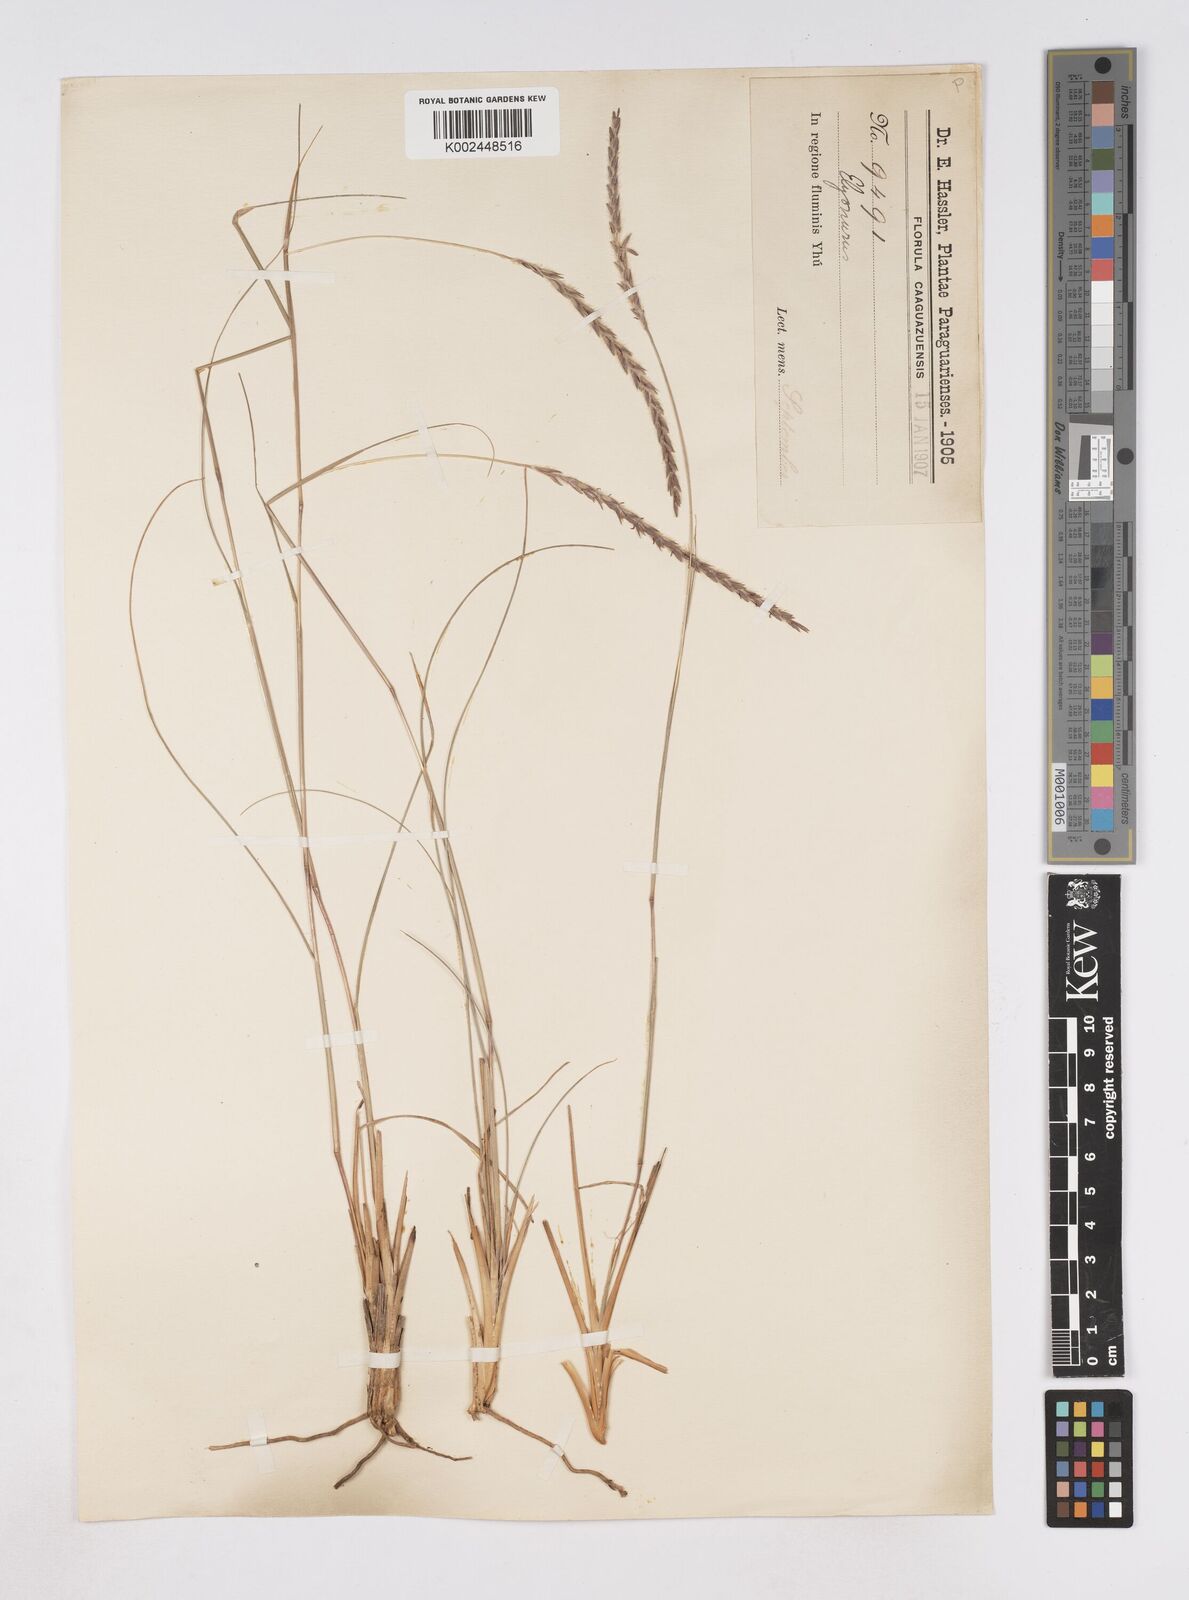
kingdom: Plantae
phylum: Tracheophyta
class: Liliopsida
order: Poales
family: Poaceae
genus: Elionurus
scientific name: Elionurus muticus
